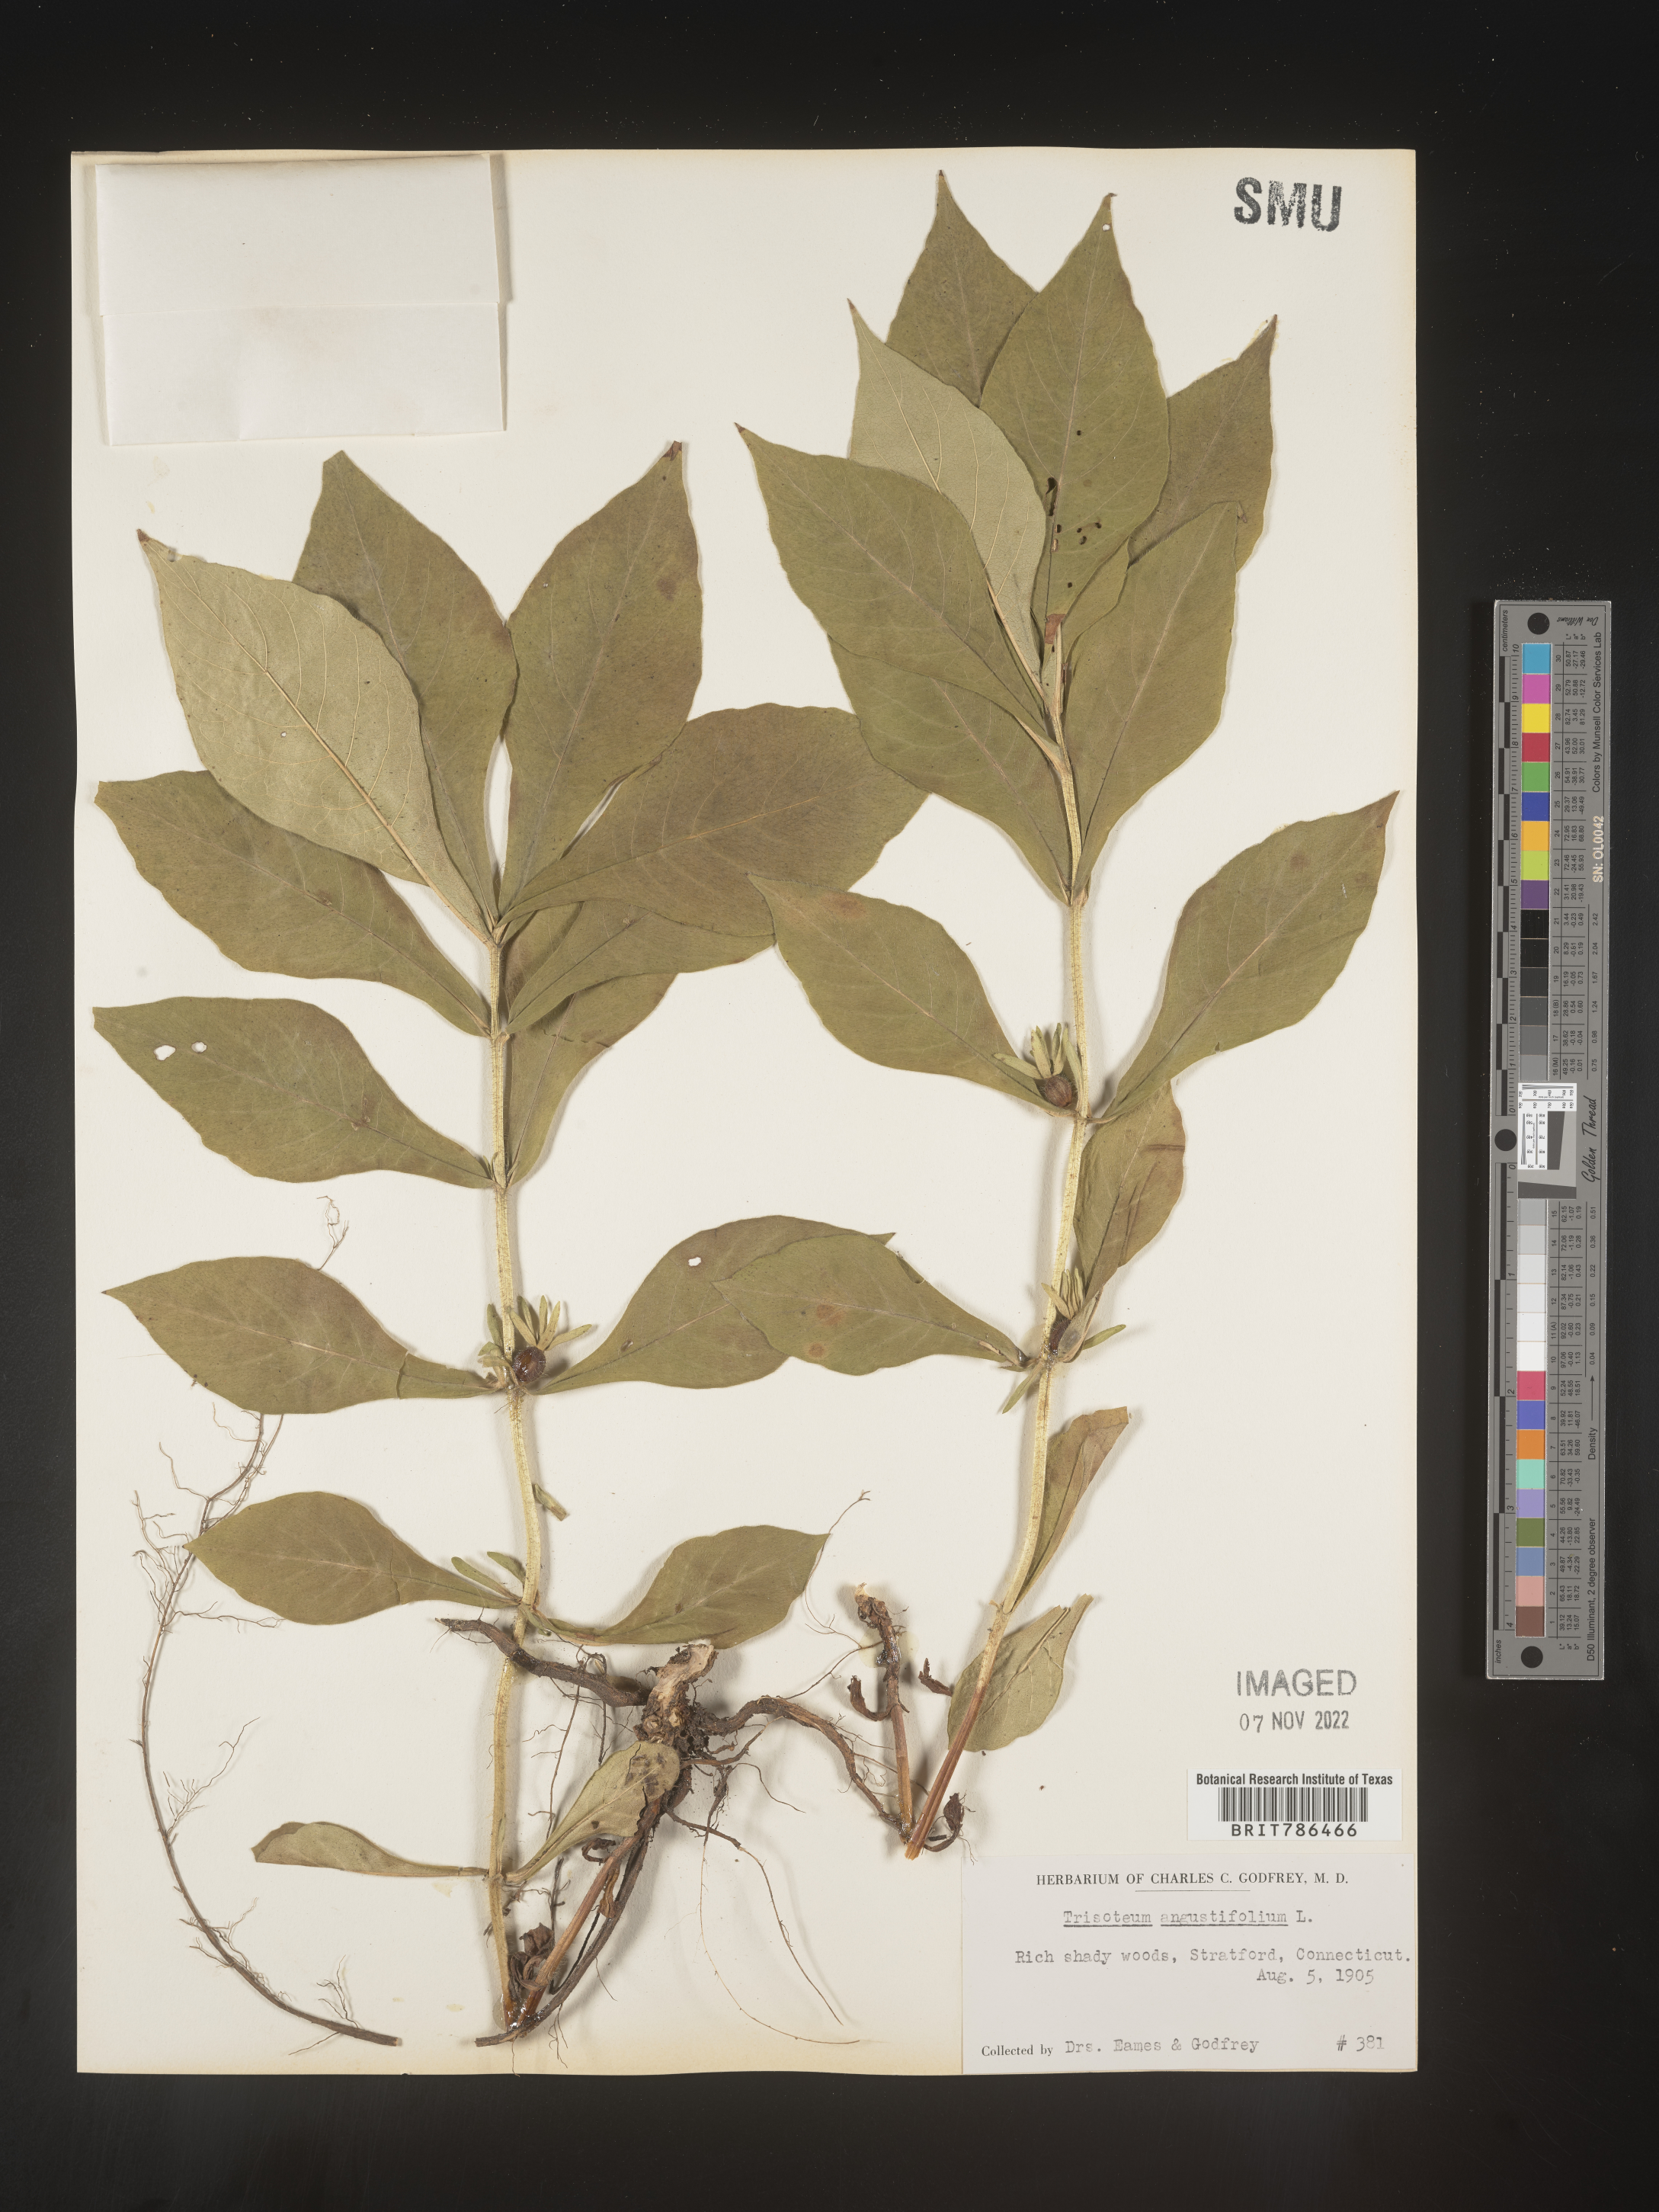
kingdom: Plantae
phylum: Tracheophyta
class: Magnoliopsida
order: Dipsacales
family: Caprifoliaceae
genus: Triosteum
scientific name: Triosteum angustifolium
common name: Narrow-leaved horse-gentian
